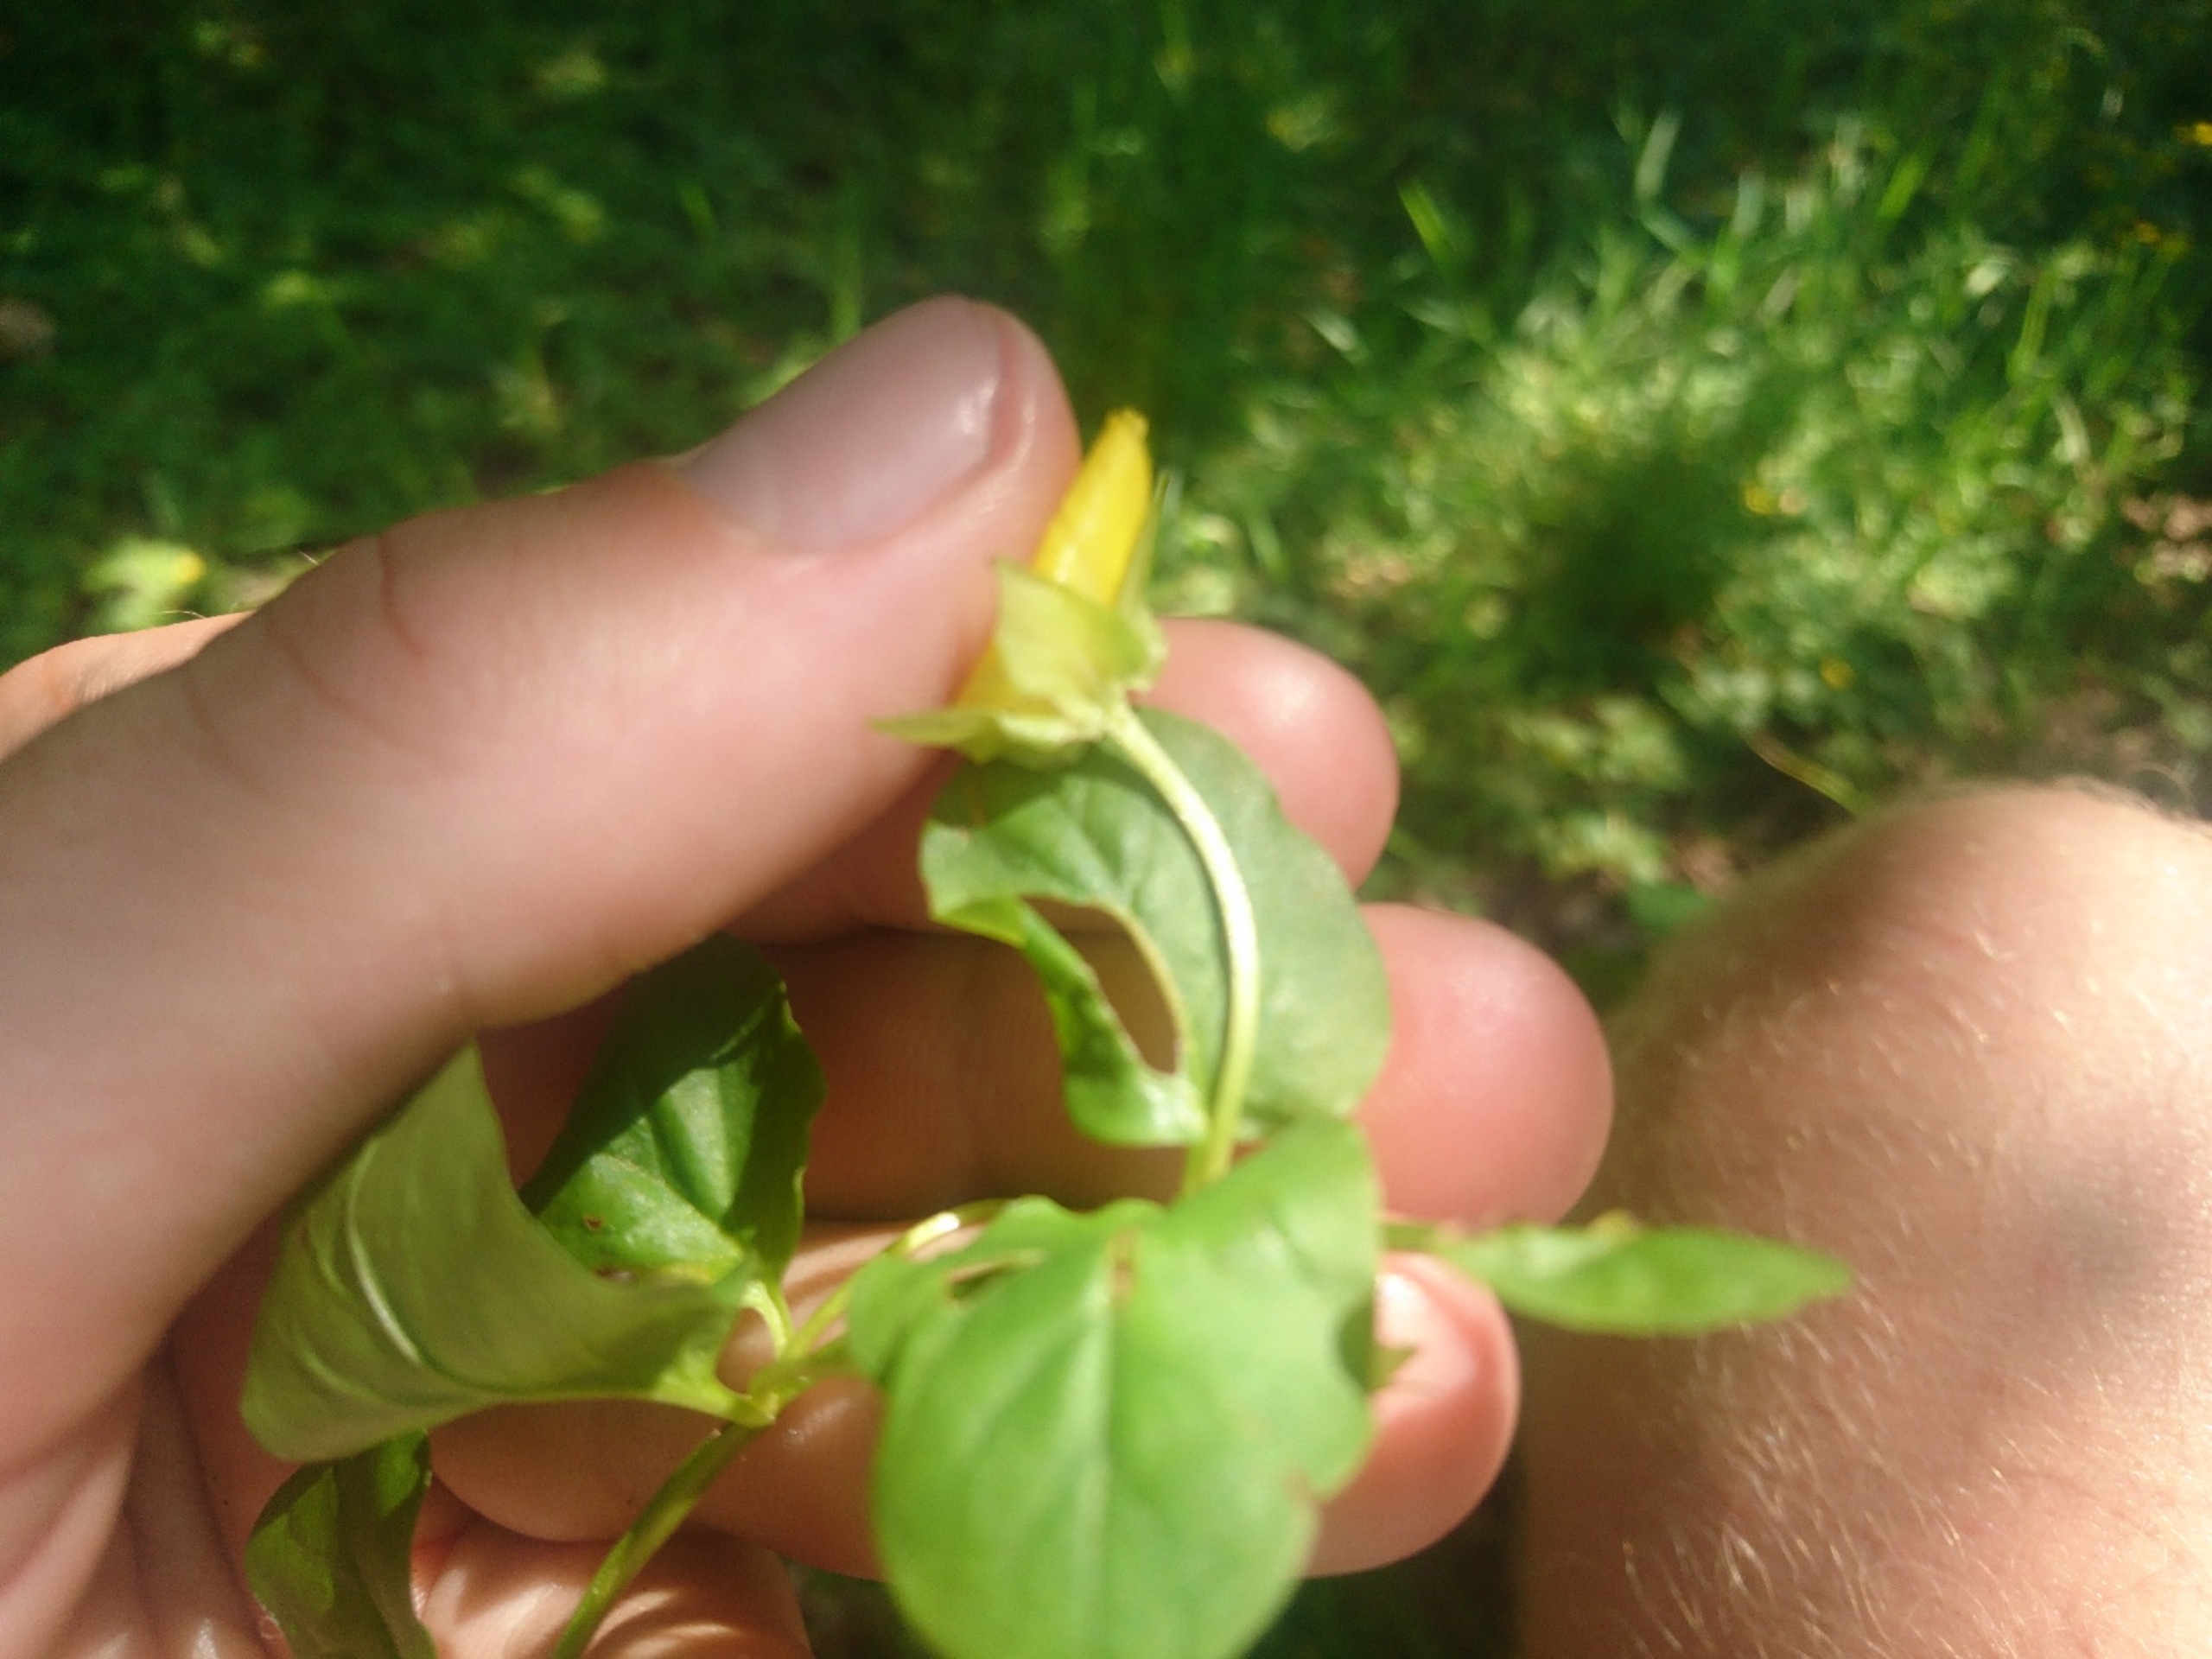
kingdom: Plantae
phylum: Tracheophyta
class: Magnoliopsida
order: Ericales
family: Primulaceae
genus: Lysimachia
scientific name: Lysimachia nummularia
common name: Pengebladet fredløs
